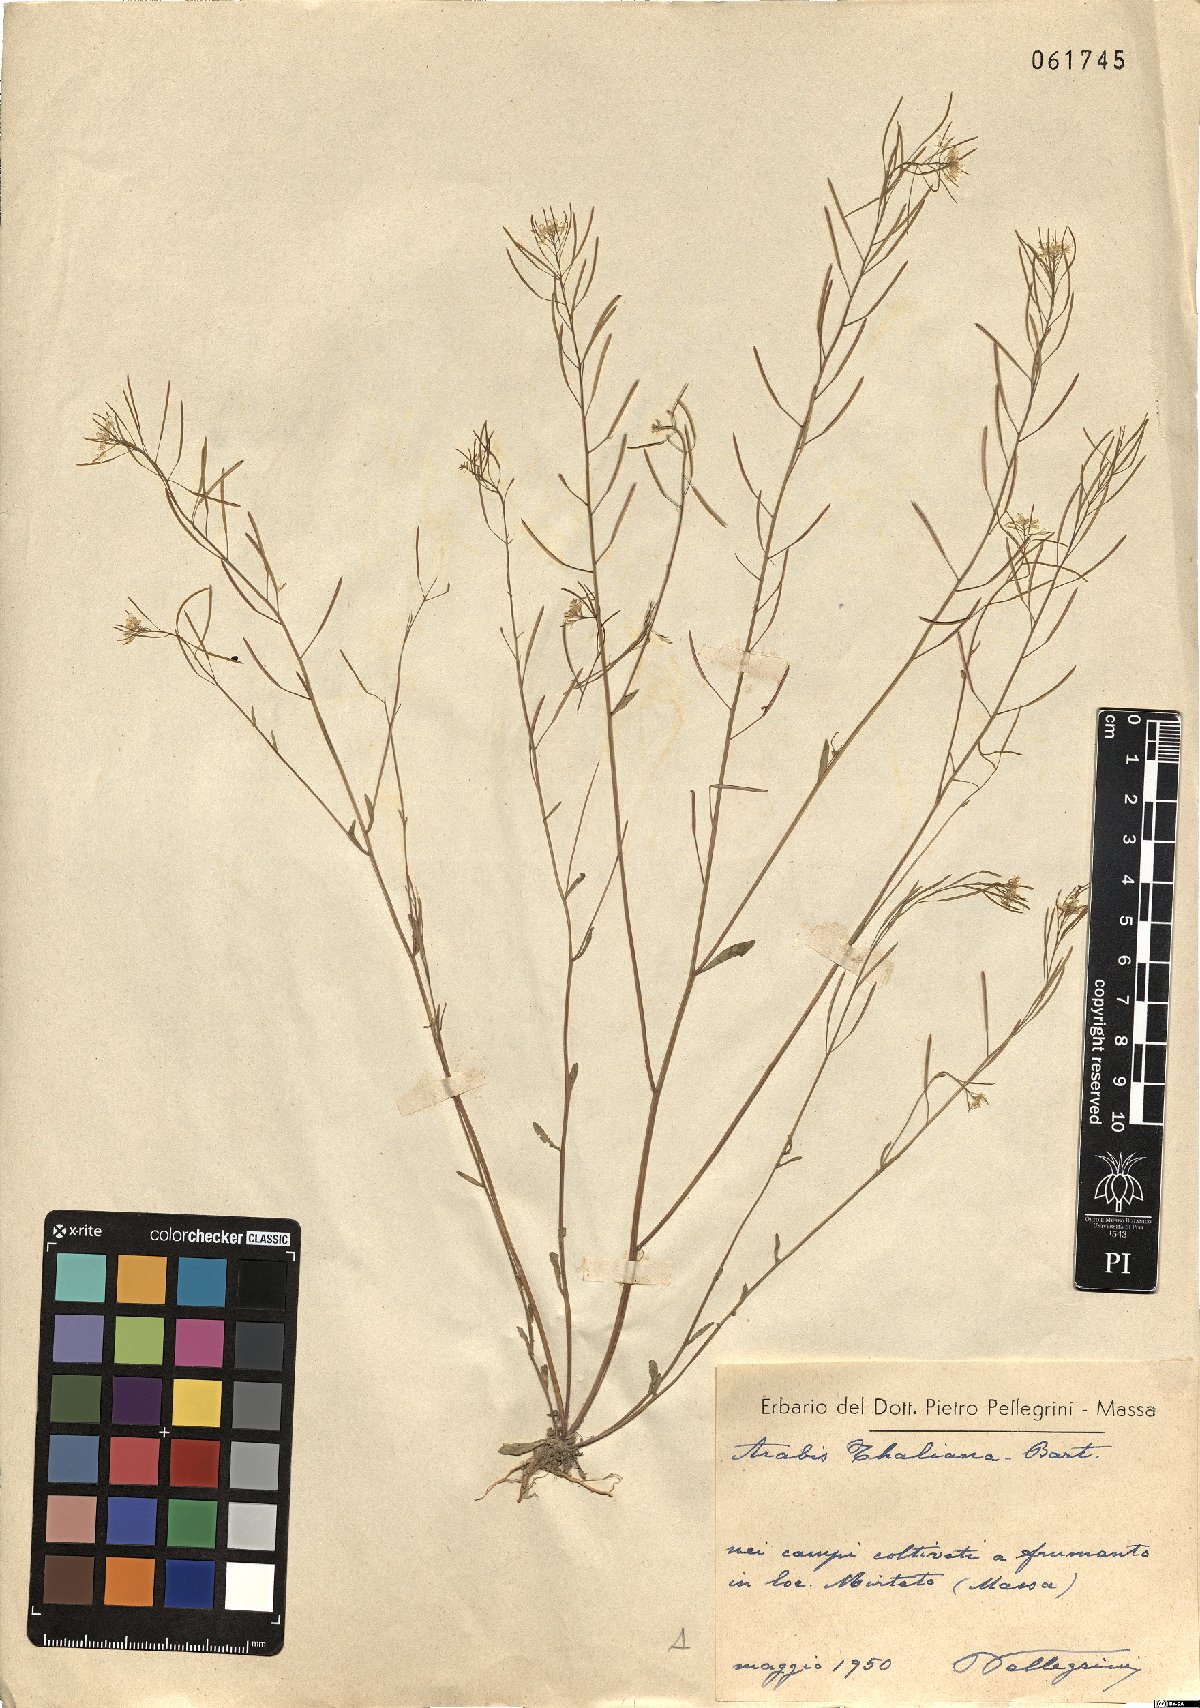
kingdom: Plantae
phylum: Tracheophyta
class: Magnoliopsida
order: Brassicales
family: Brassicaceae
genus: Arabidopsis
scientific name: Arabidopsis thaliana
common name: Thale cress
